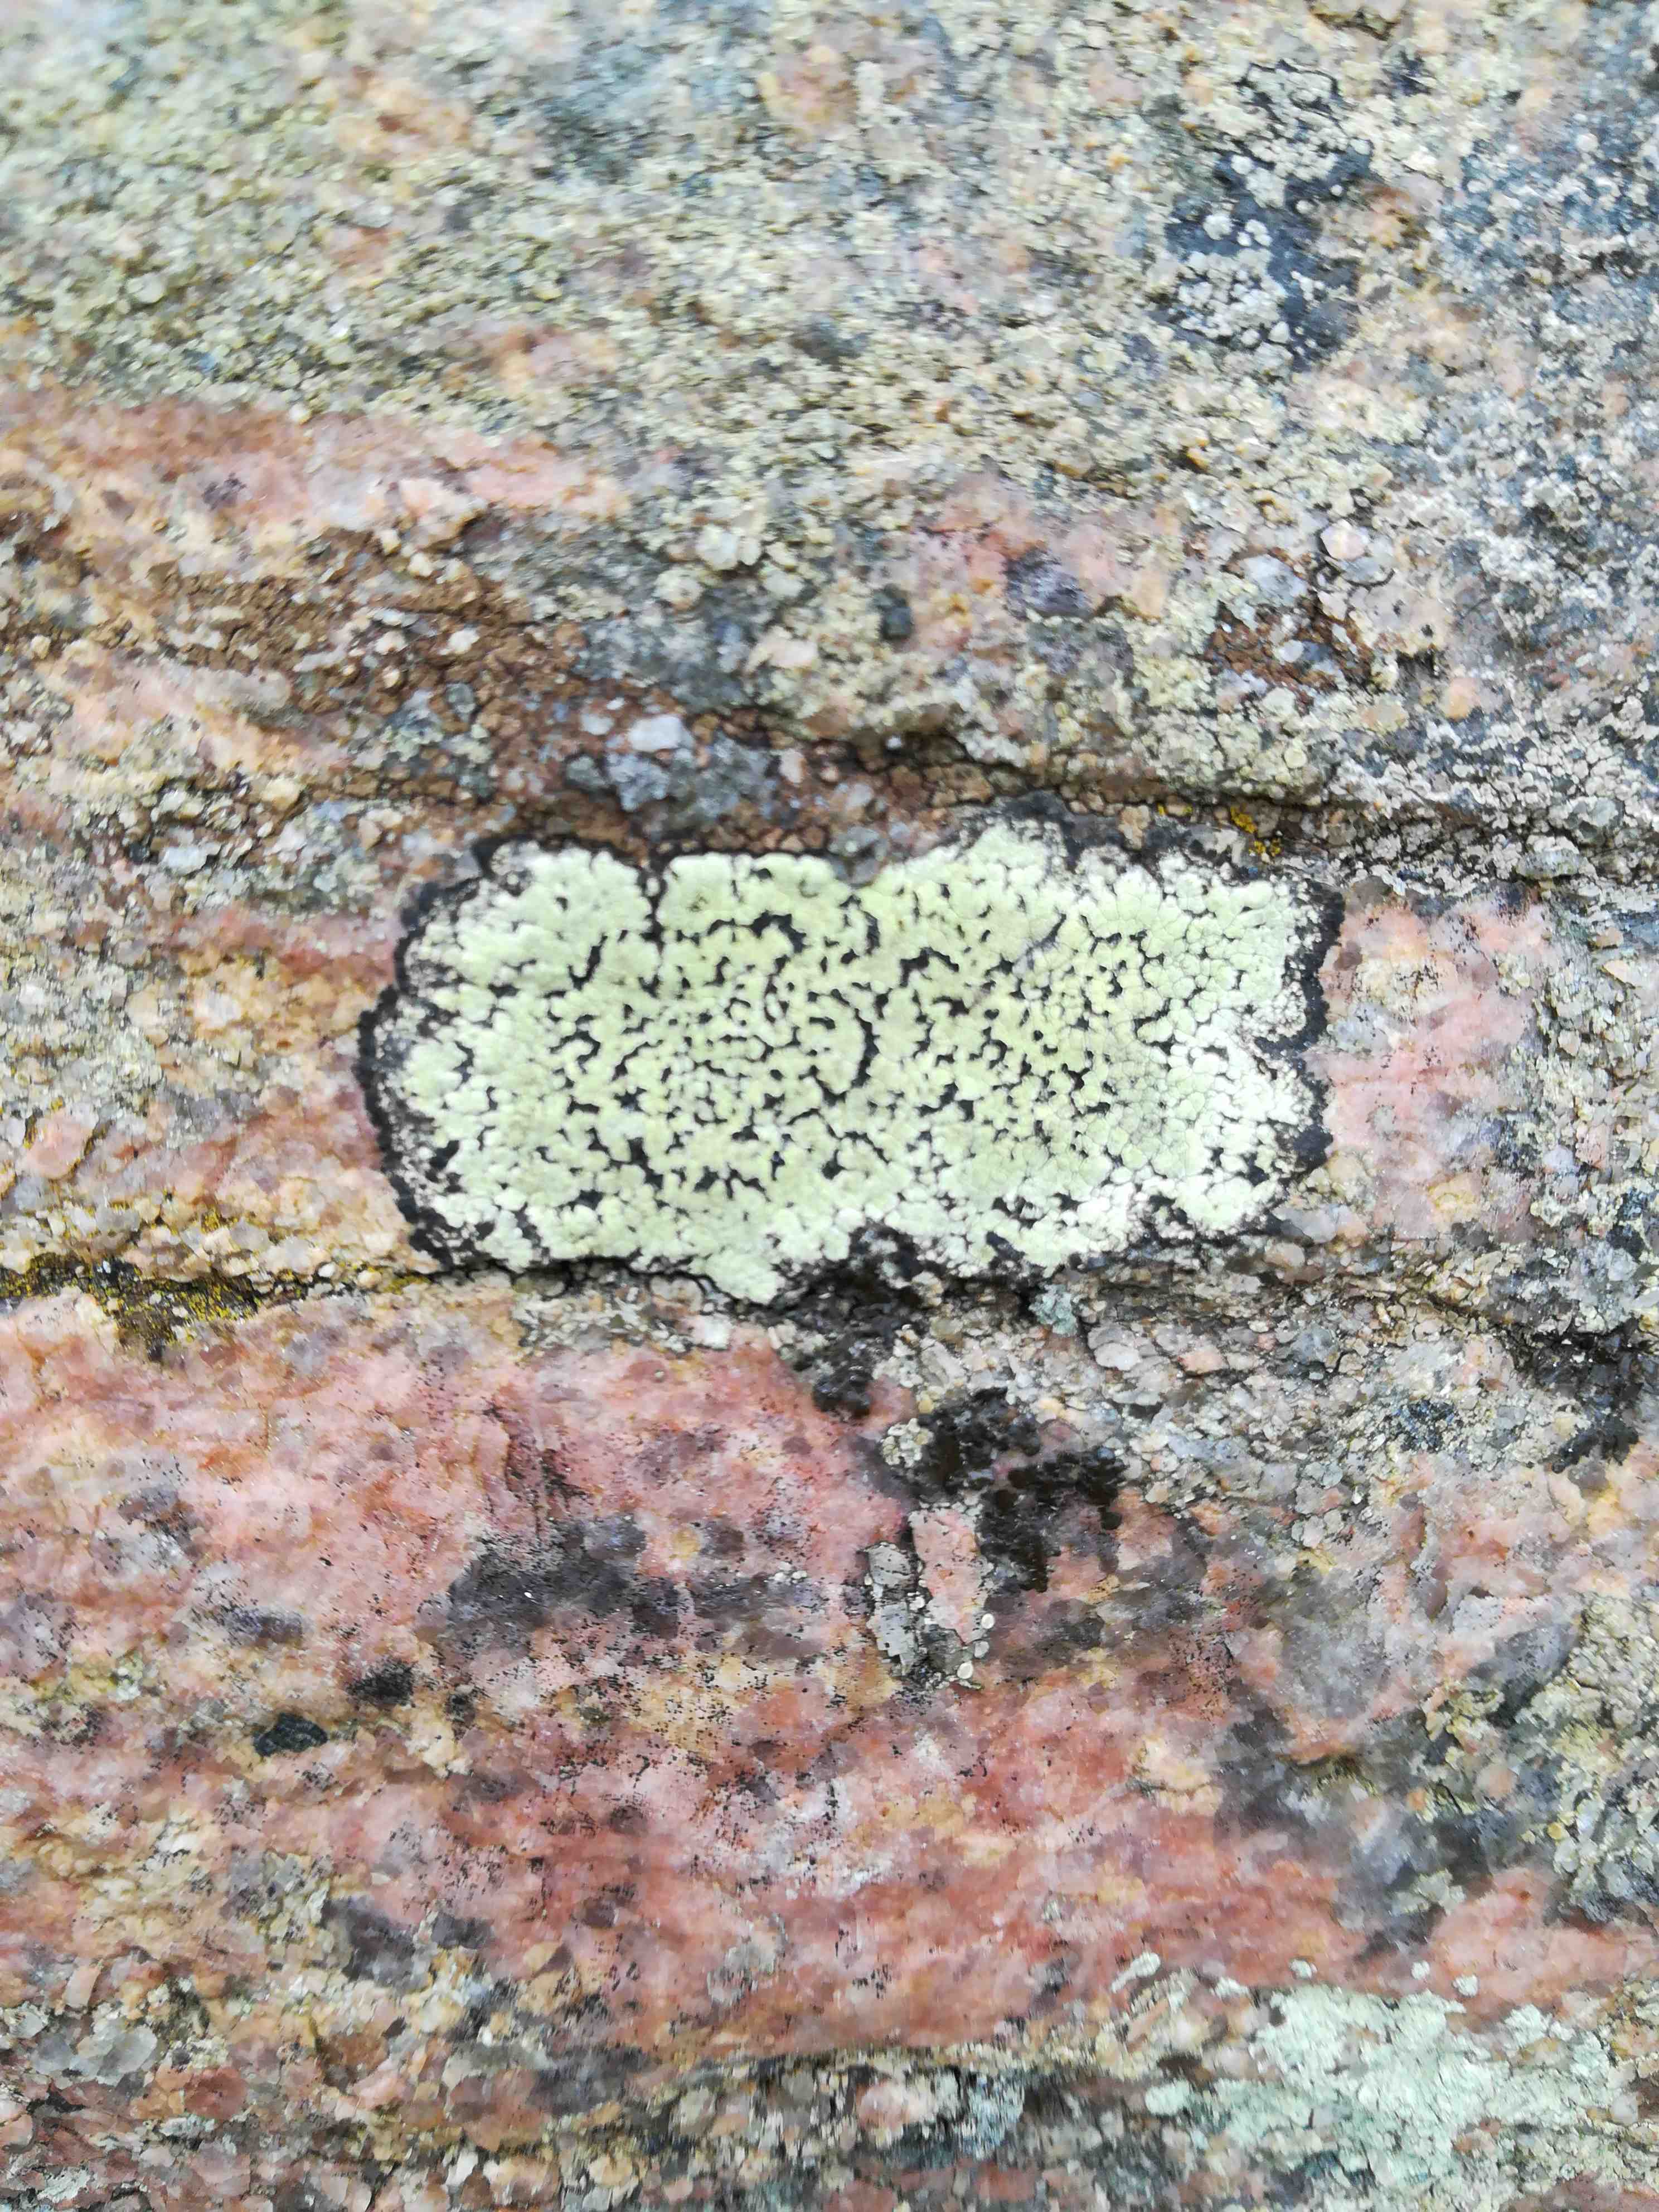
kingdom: Fungi
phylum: Ascomycota
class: Lecanoromycetes
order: Rhizocarpales
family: Rhizocarpaceae
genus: Rhizocarpon
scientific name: Rhizocarpon
